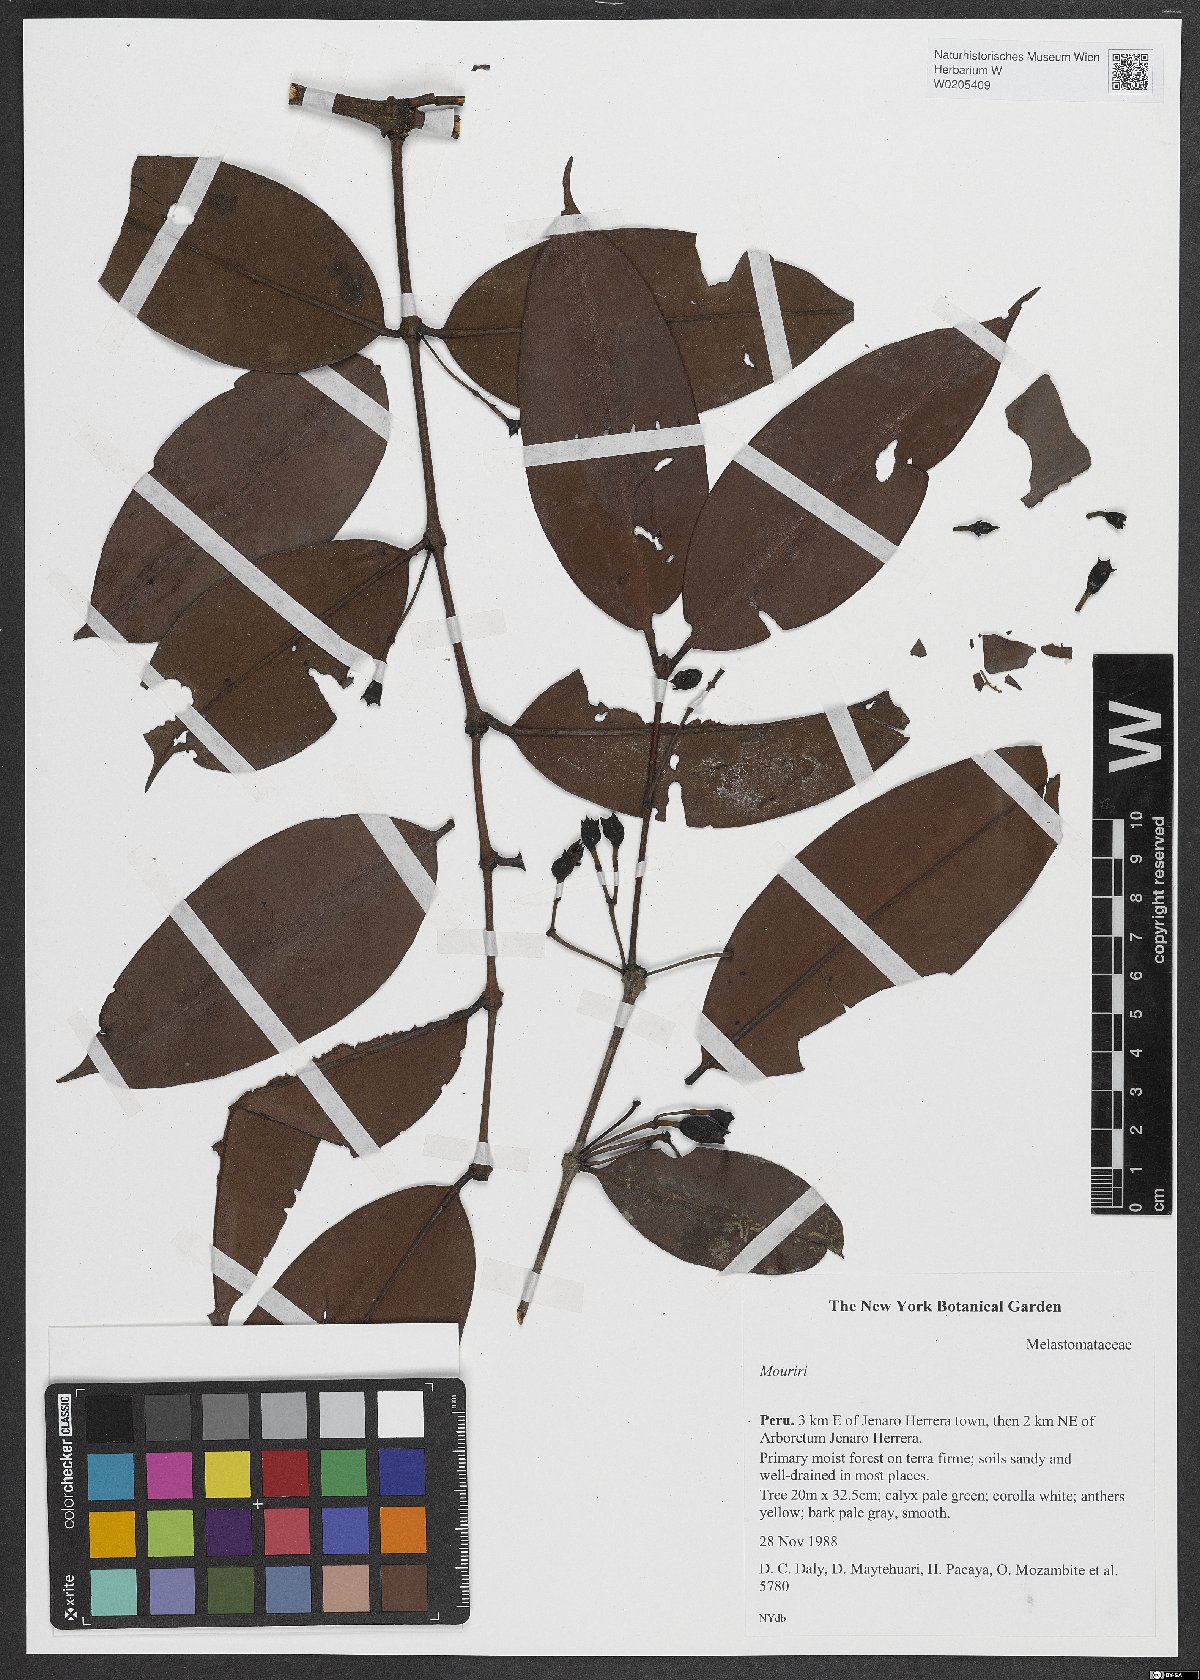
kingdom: Plantae
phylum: Tracheophyta
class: Magnoliopsida
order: Myrtales
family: Melastomataceae
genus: Mouriri
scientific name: Mouriri
